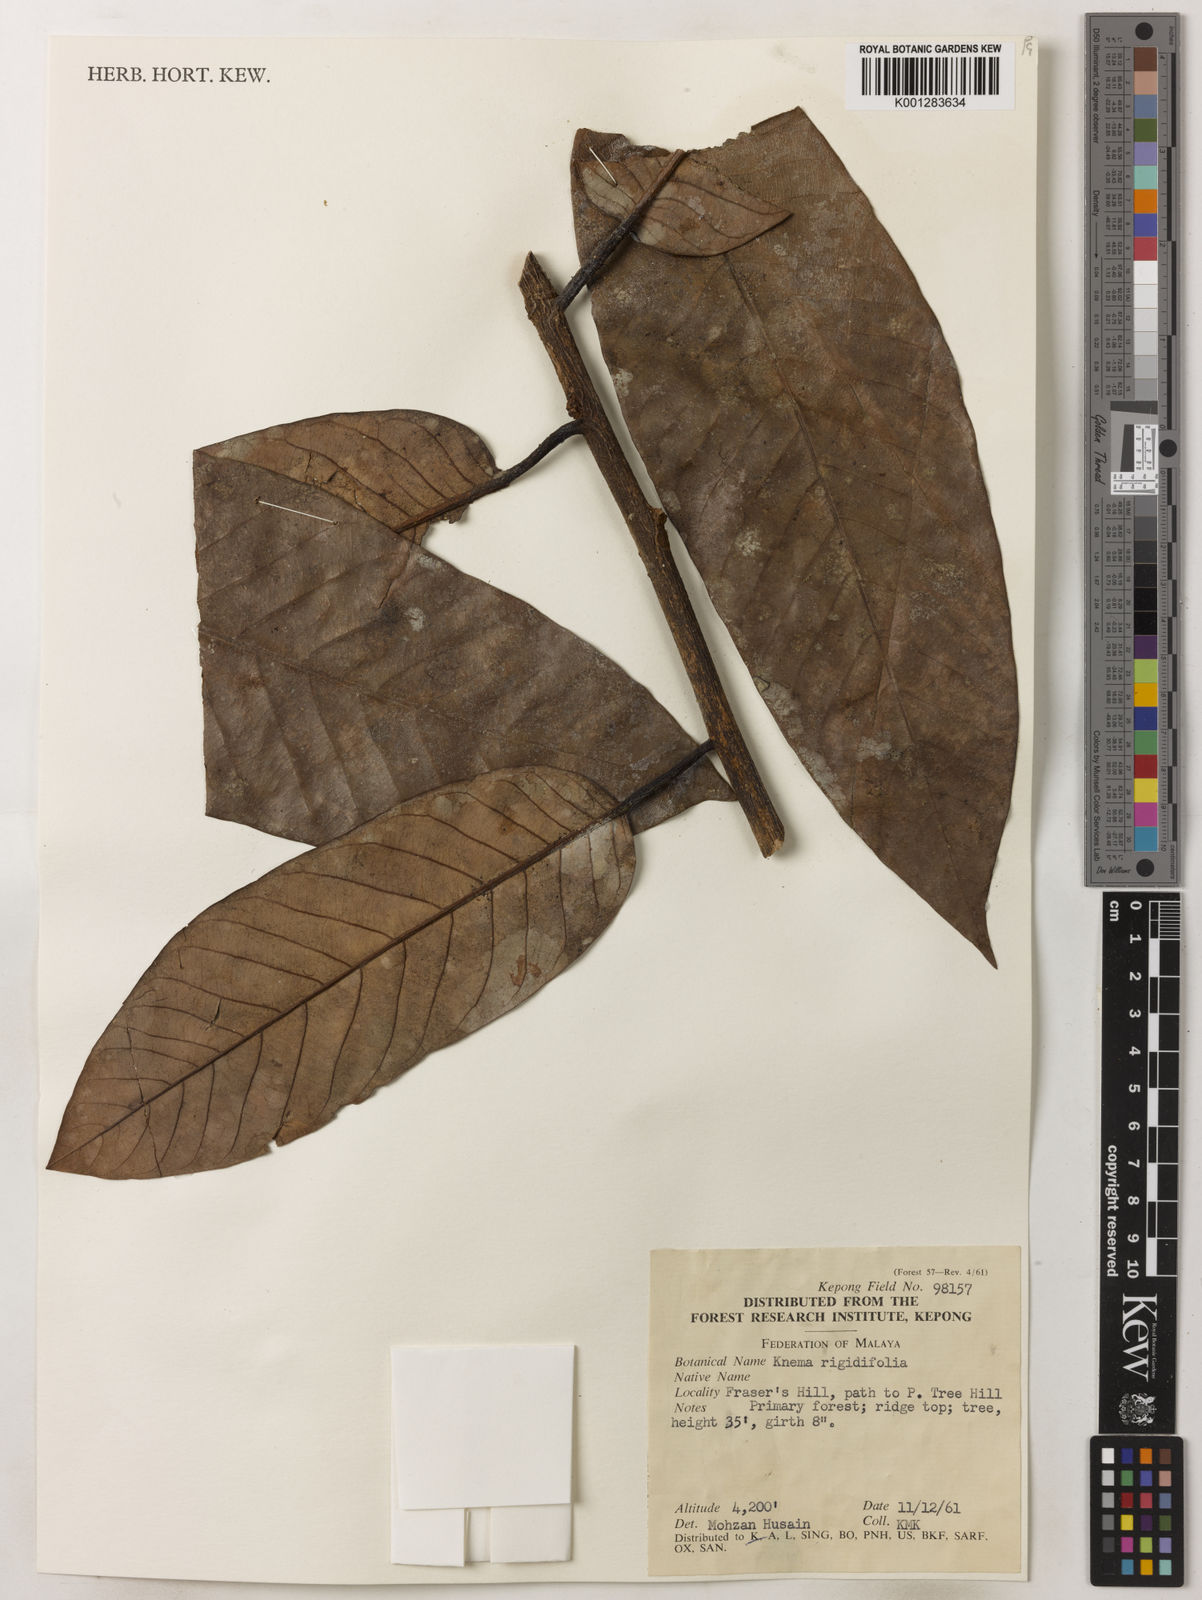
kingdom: Plantae
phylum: Tracheophyta
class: Magnoliopsida
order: Magnoliales
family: Myristicaceae
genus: Knema
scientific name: Knema rigidifolia
